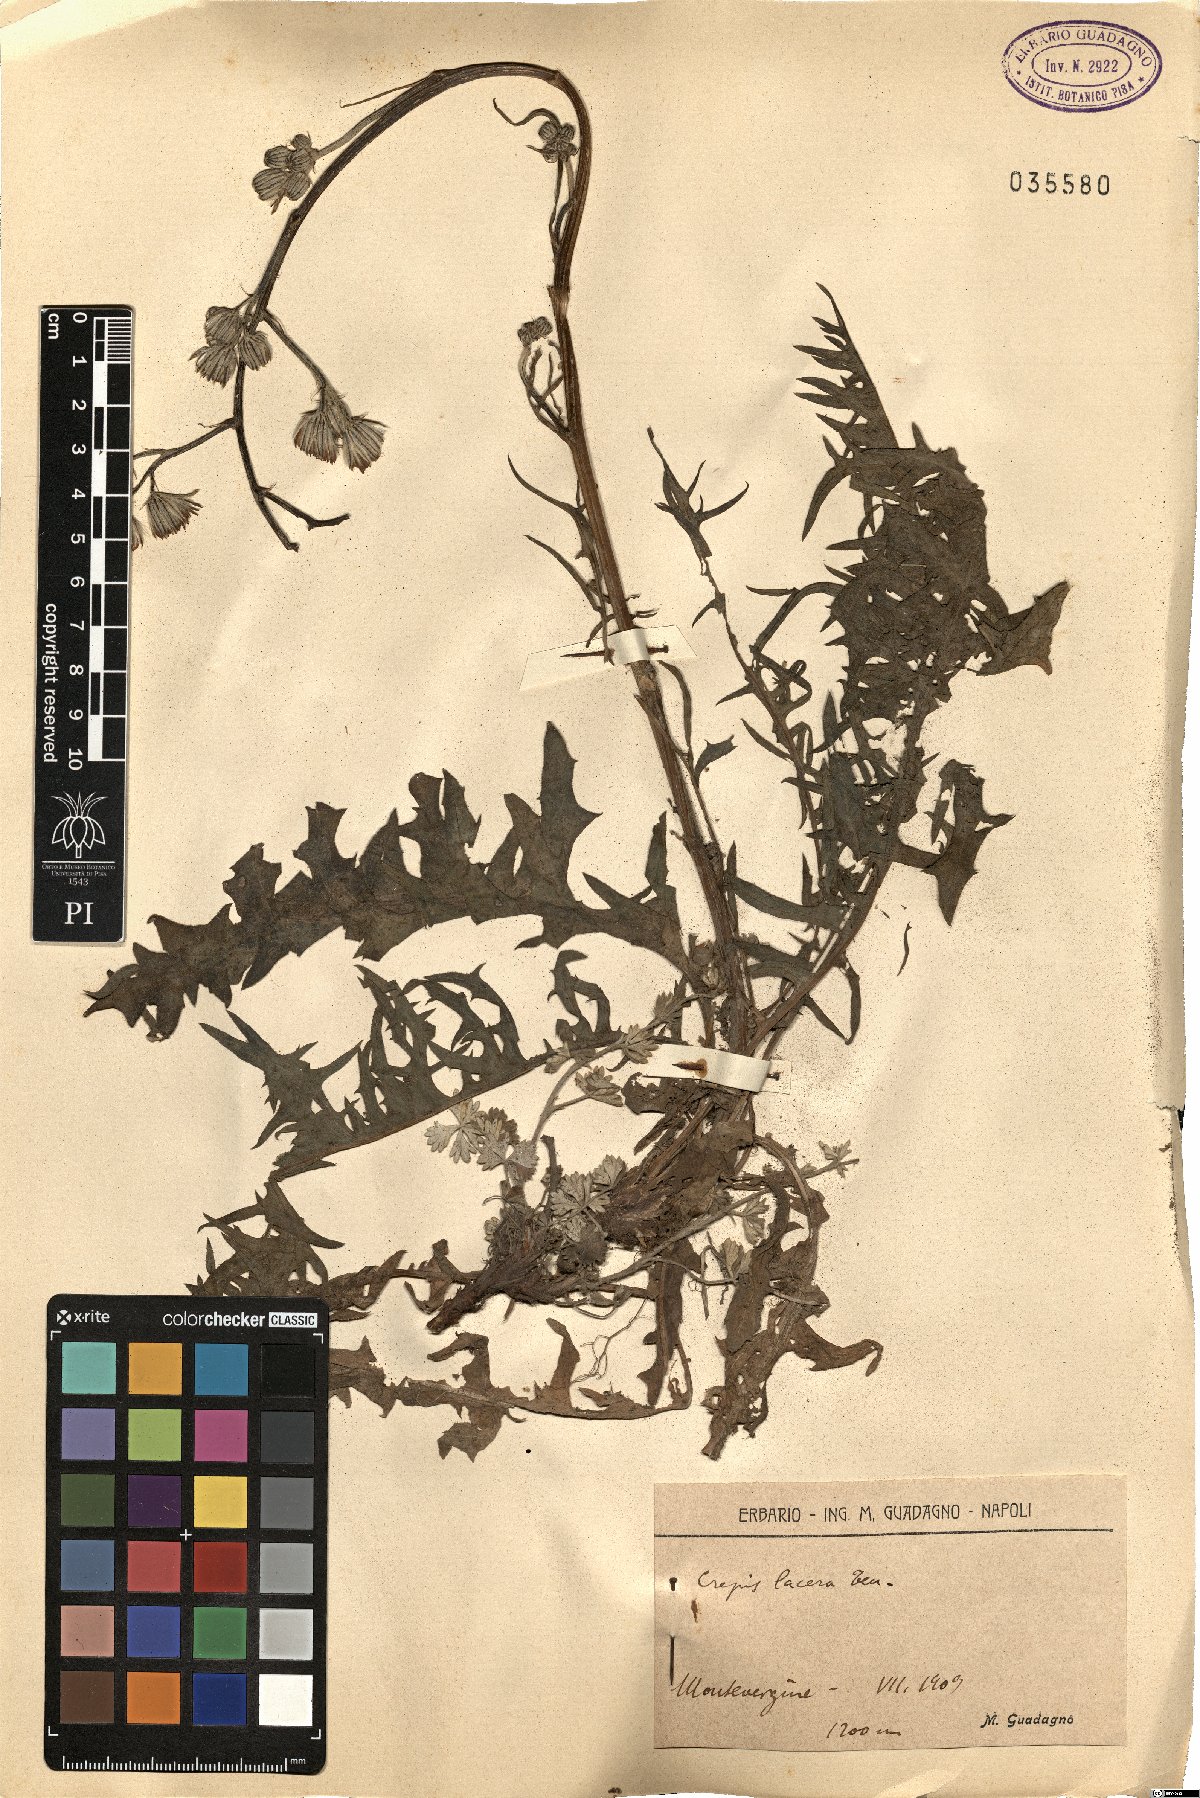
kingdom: Plantae
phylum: Tracheophyta
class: Magnoliopsida
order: Asterales
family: Asteraceae
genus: Crepis
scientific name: Crepis lacera
